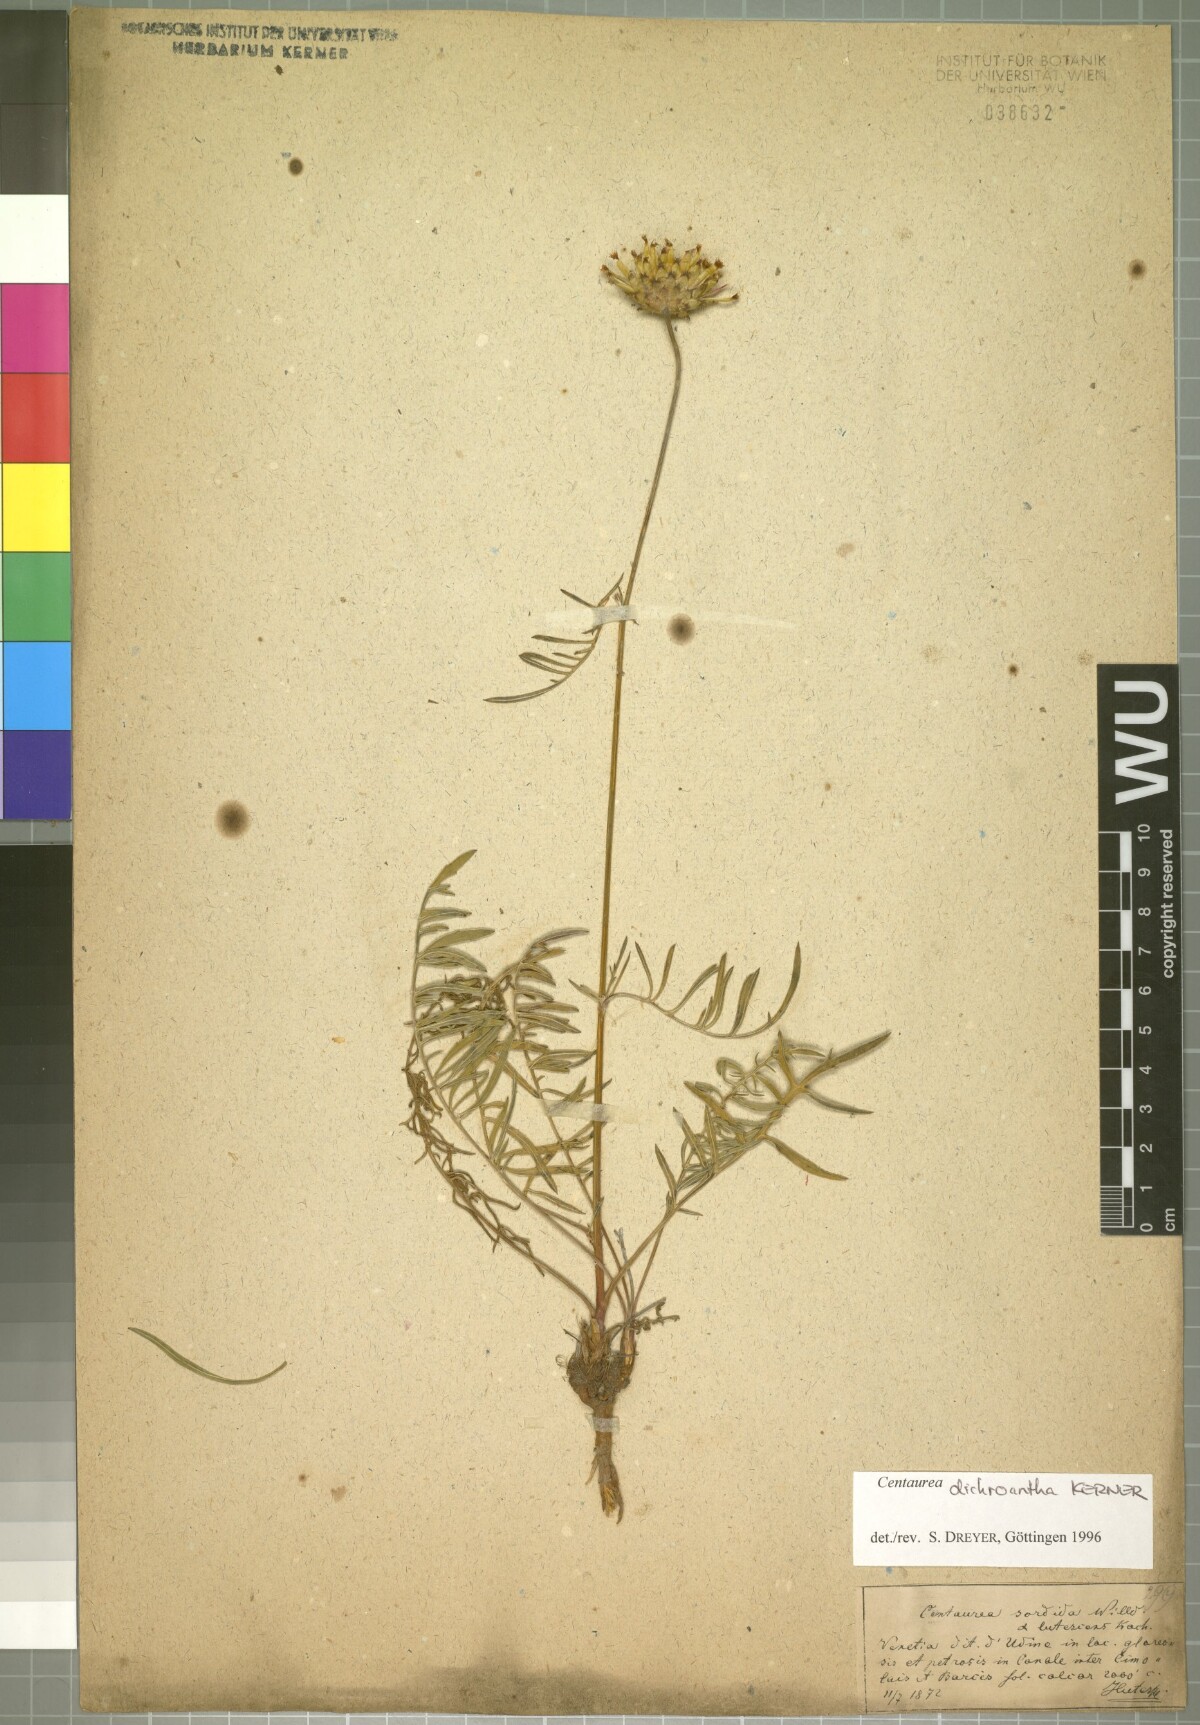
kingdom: Plantae
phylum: Tracheophyta
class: Magnoliopsida
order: Asterales
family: Asteraceae
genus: Centaurea
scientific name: Centaurea dichroantha
